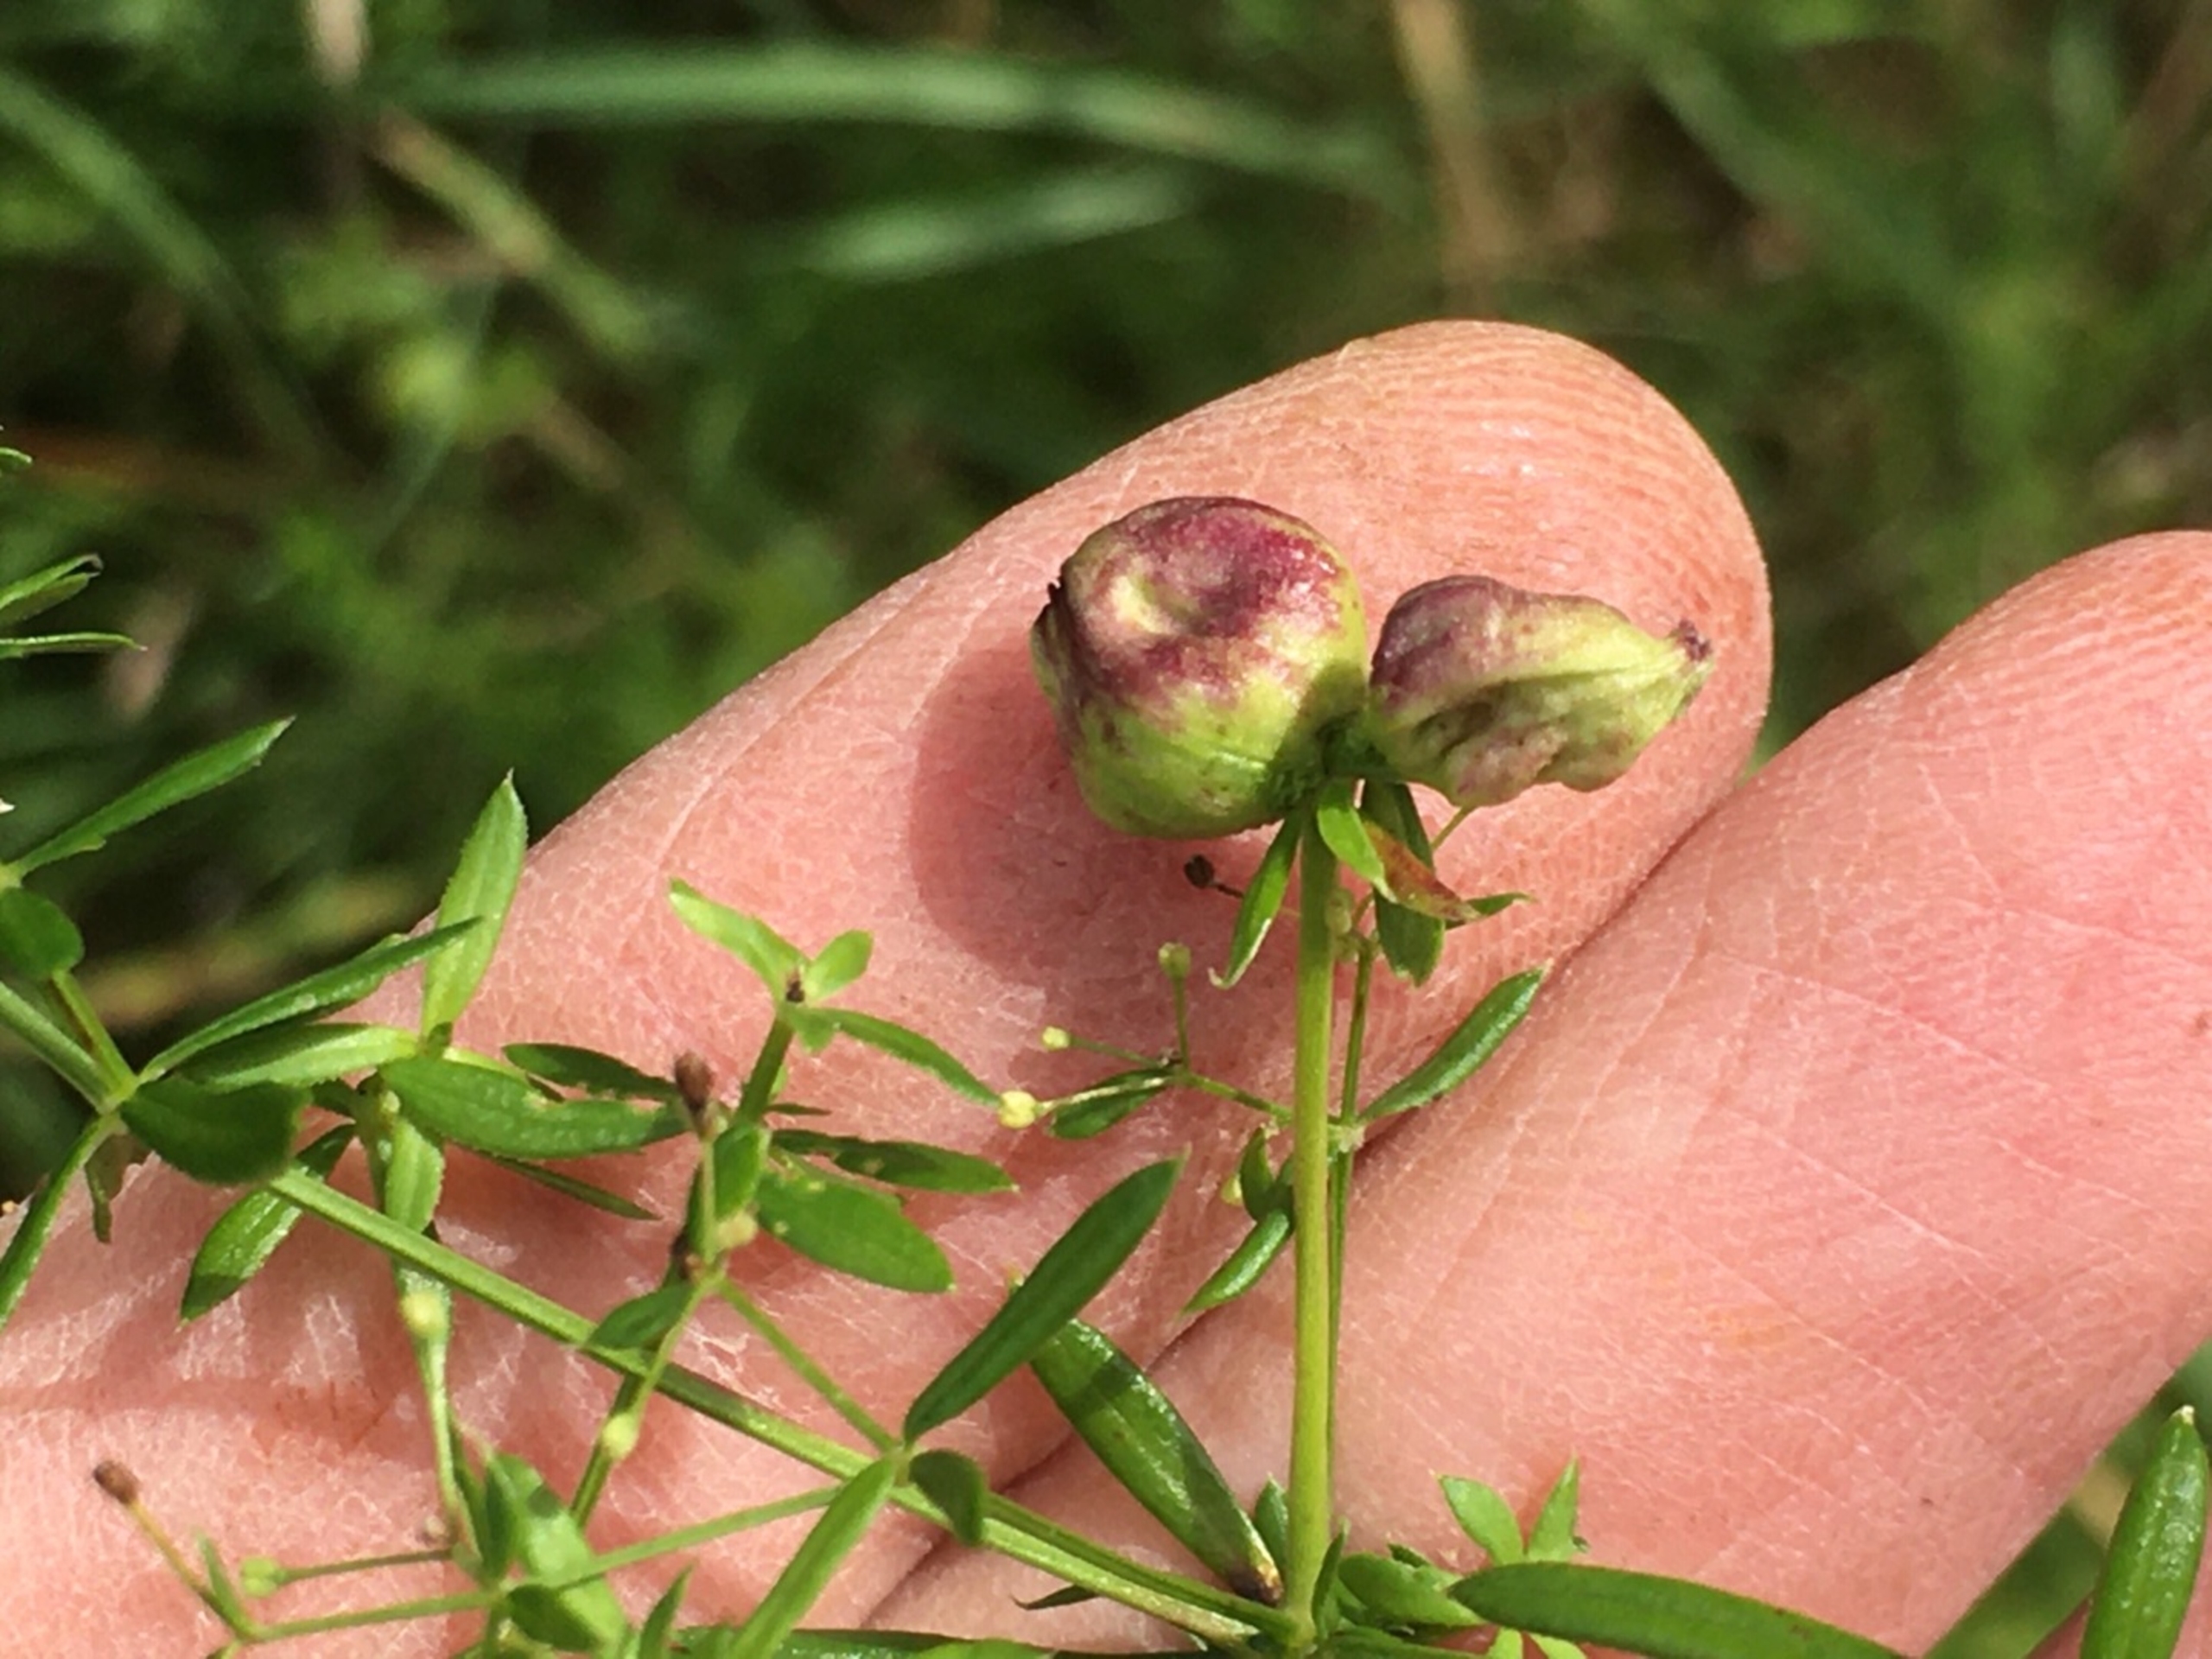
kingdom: Animalia
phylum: Arthropoda
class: Arachnida
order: Trombidiformes
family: Eriophyidae
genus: Aceria
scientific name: Aceria galiobia
